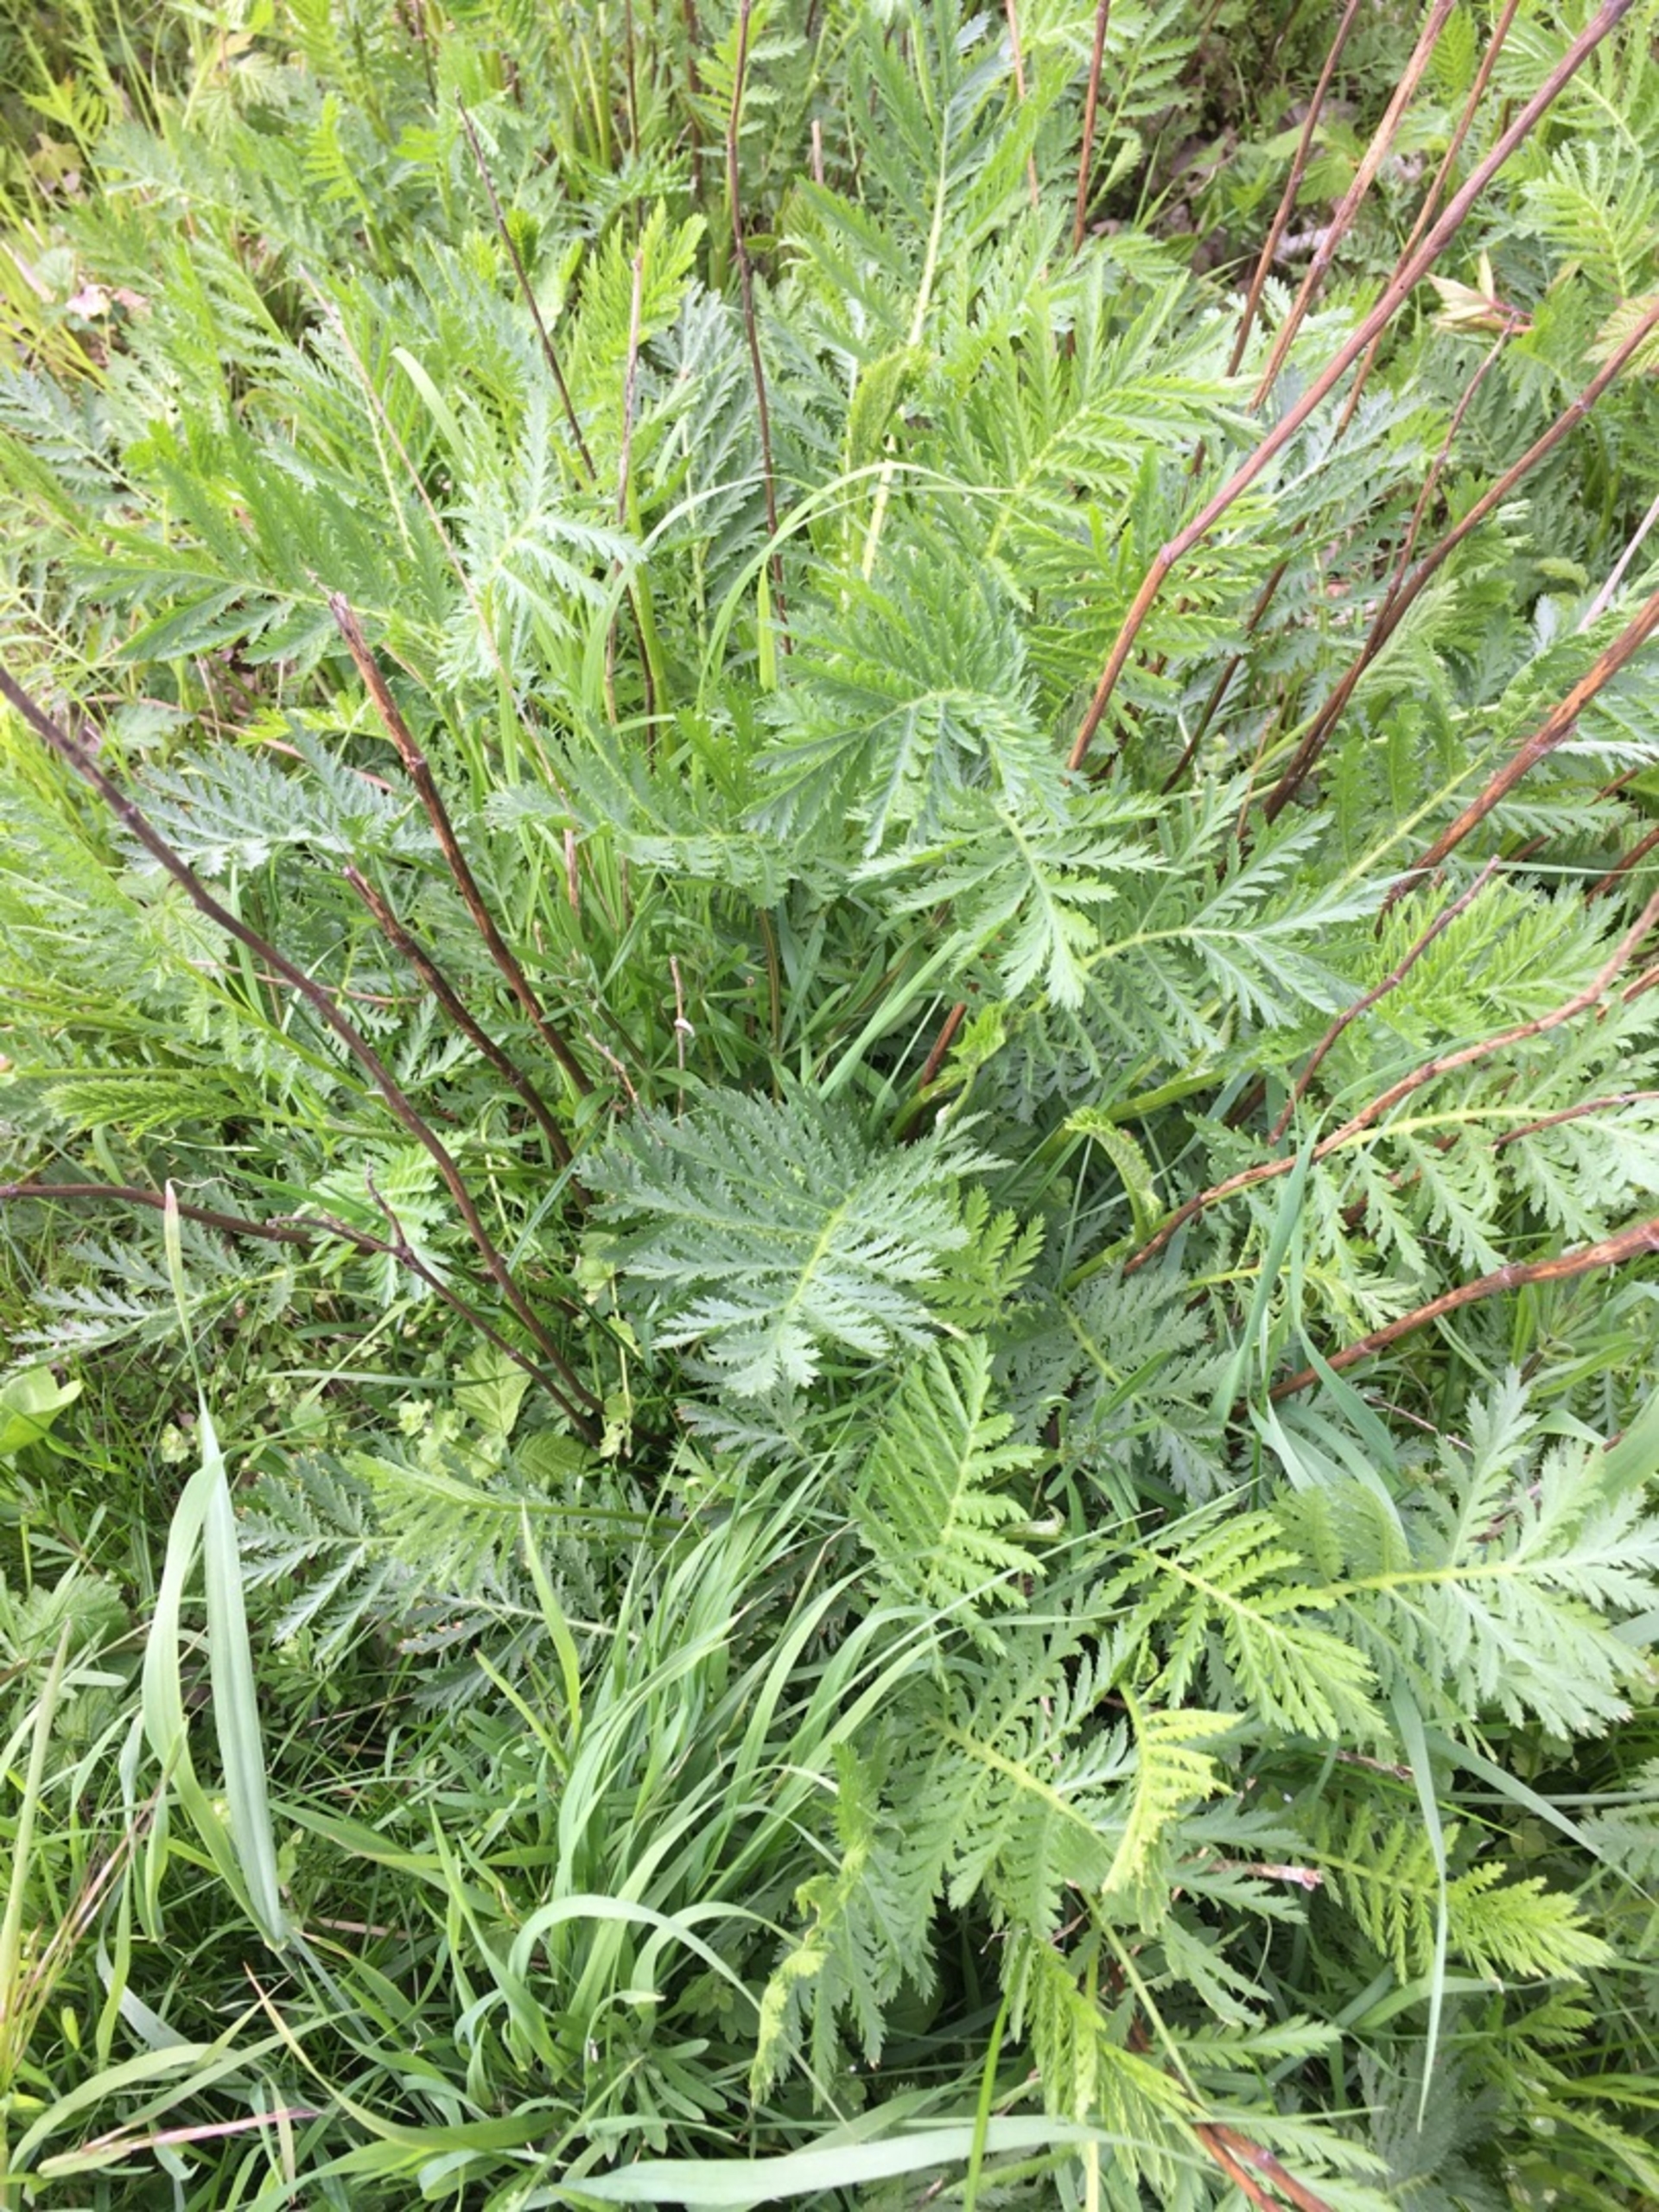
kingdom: Plantae
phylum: Tracheophyta
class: Magnoliopsida
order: Asterales
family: Asteraceae
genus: Tanacetum
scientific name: Tanacetum vulgare
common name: Rejnfan
